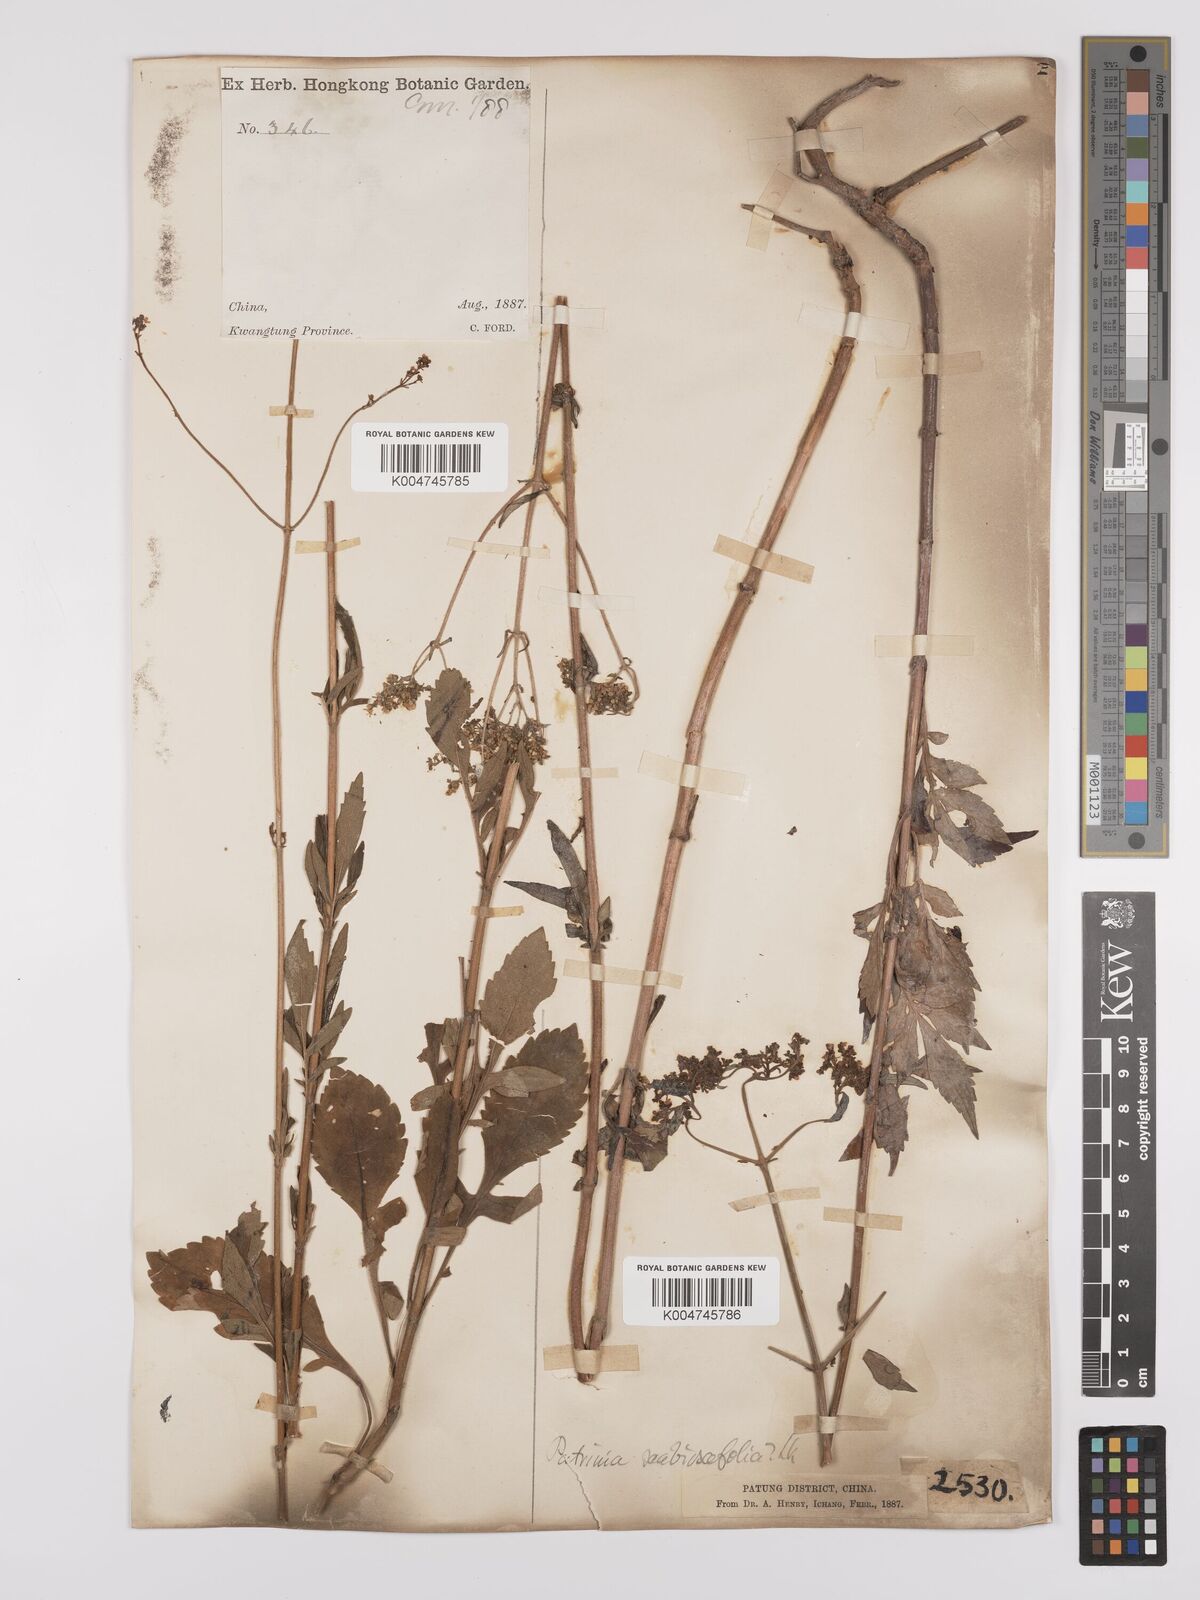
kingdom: Plantae
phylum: Tracheophyta
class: Magnoliopsida
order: Dipsacales
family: Caprifoliaceae
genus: Patrinia
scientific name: Patrinia scabiosifolia
